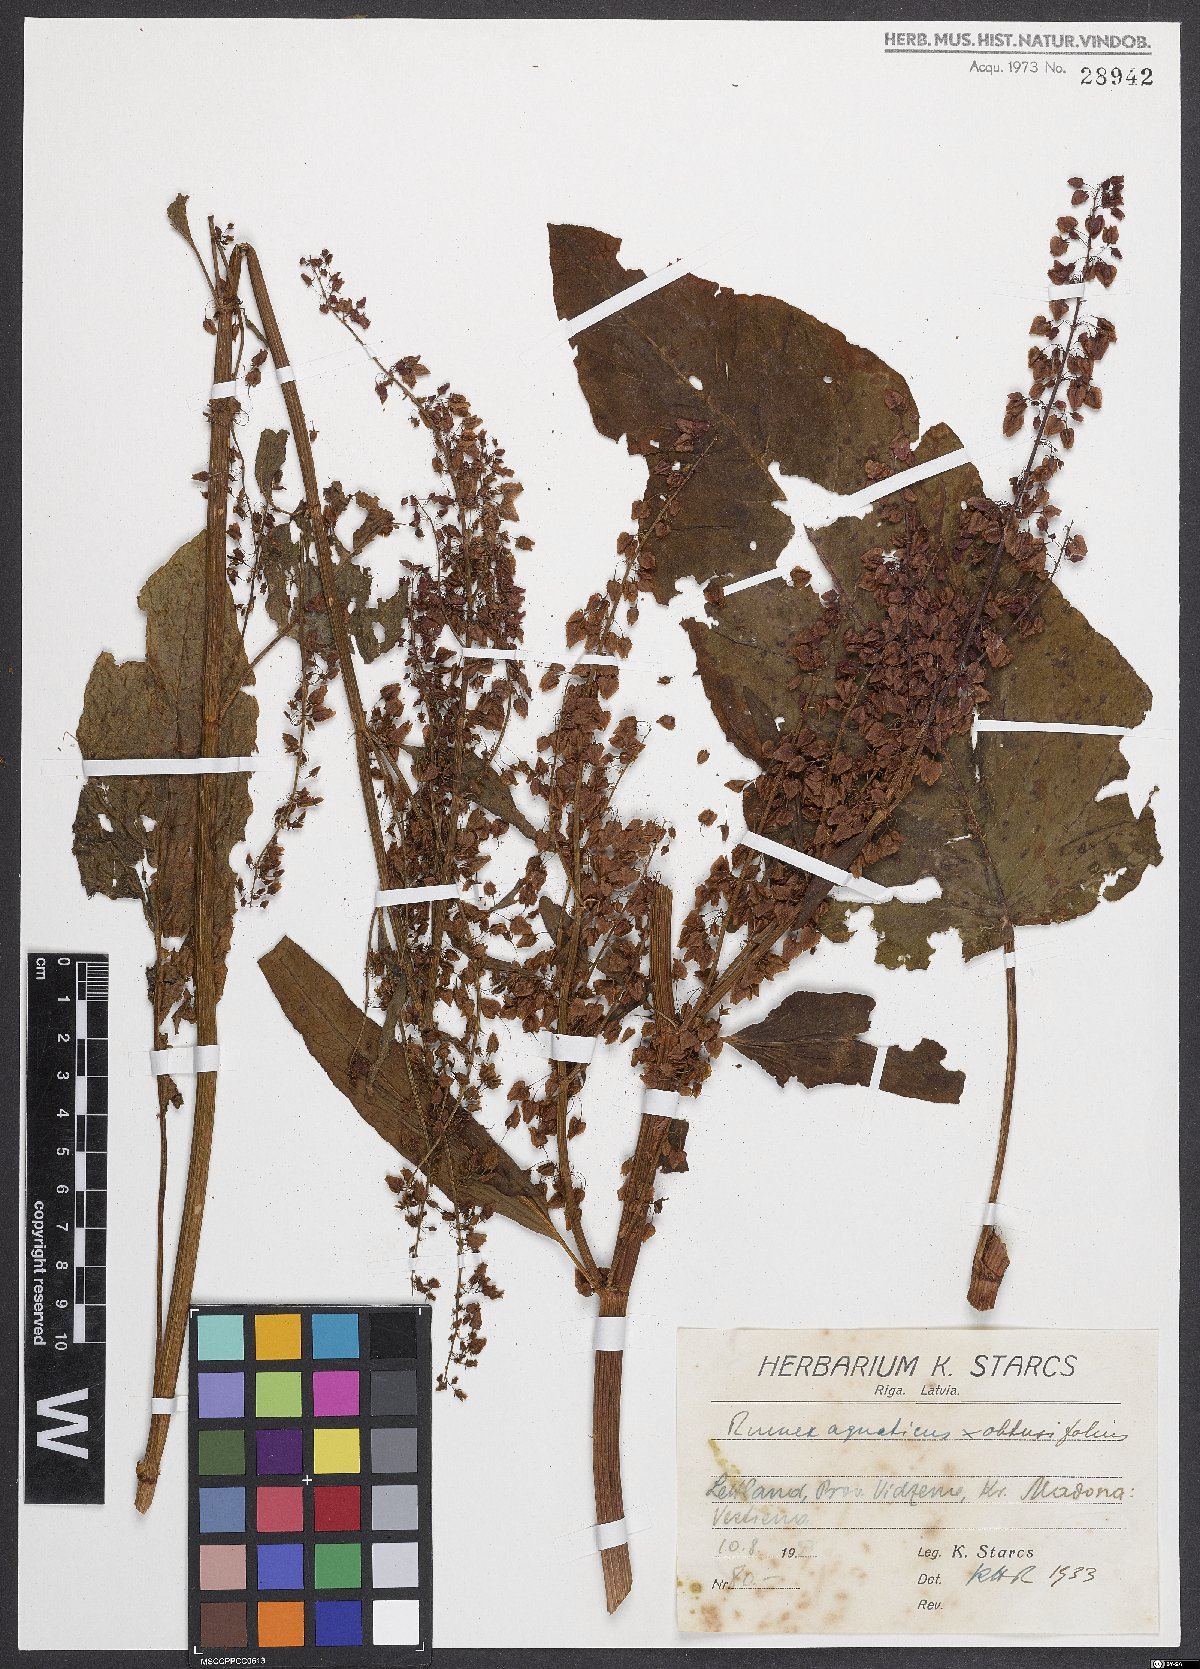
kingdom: Plantae
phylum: Tracheophyta
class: Magnoliopsida
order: Caryophyllales
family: Polygonaceae
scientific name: Polygonaceae
